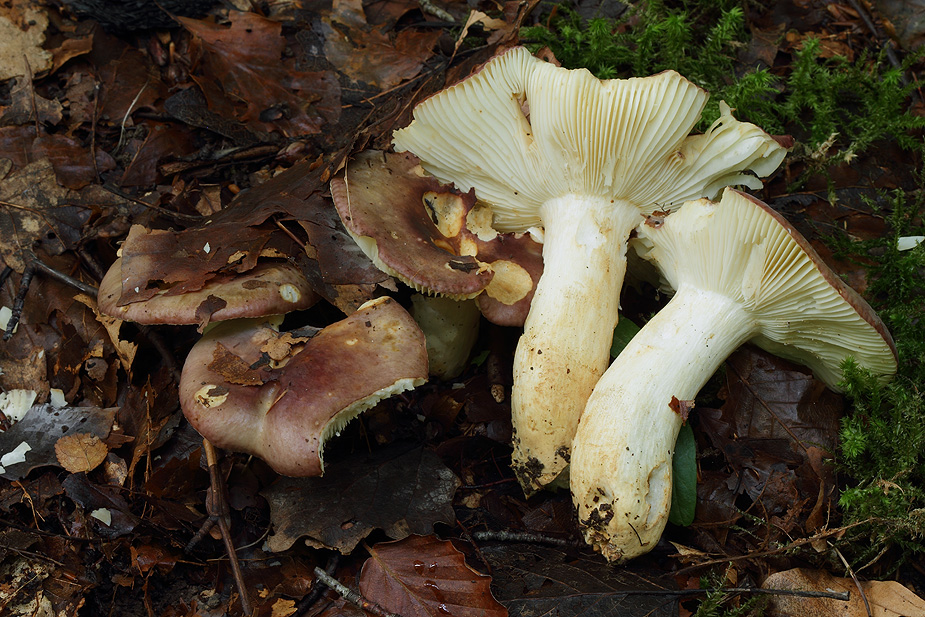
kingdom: Fungi
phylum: Basidiomycota
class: Agaricomycetes
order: Russulales
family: Russulaceae
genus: Russula
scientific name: Russula viscida
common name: knippe-skørhat
